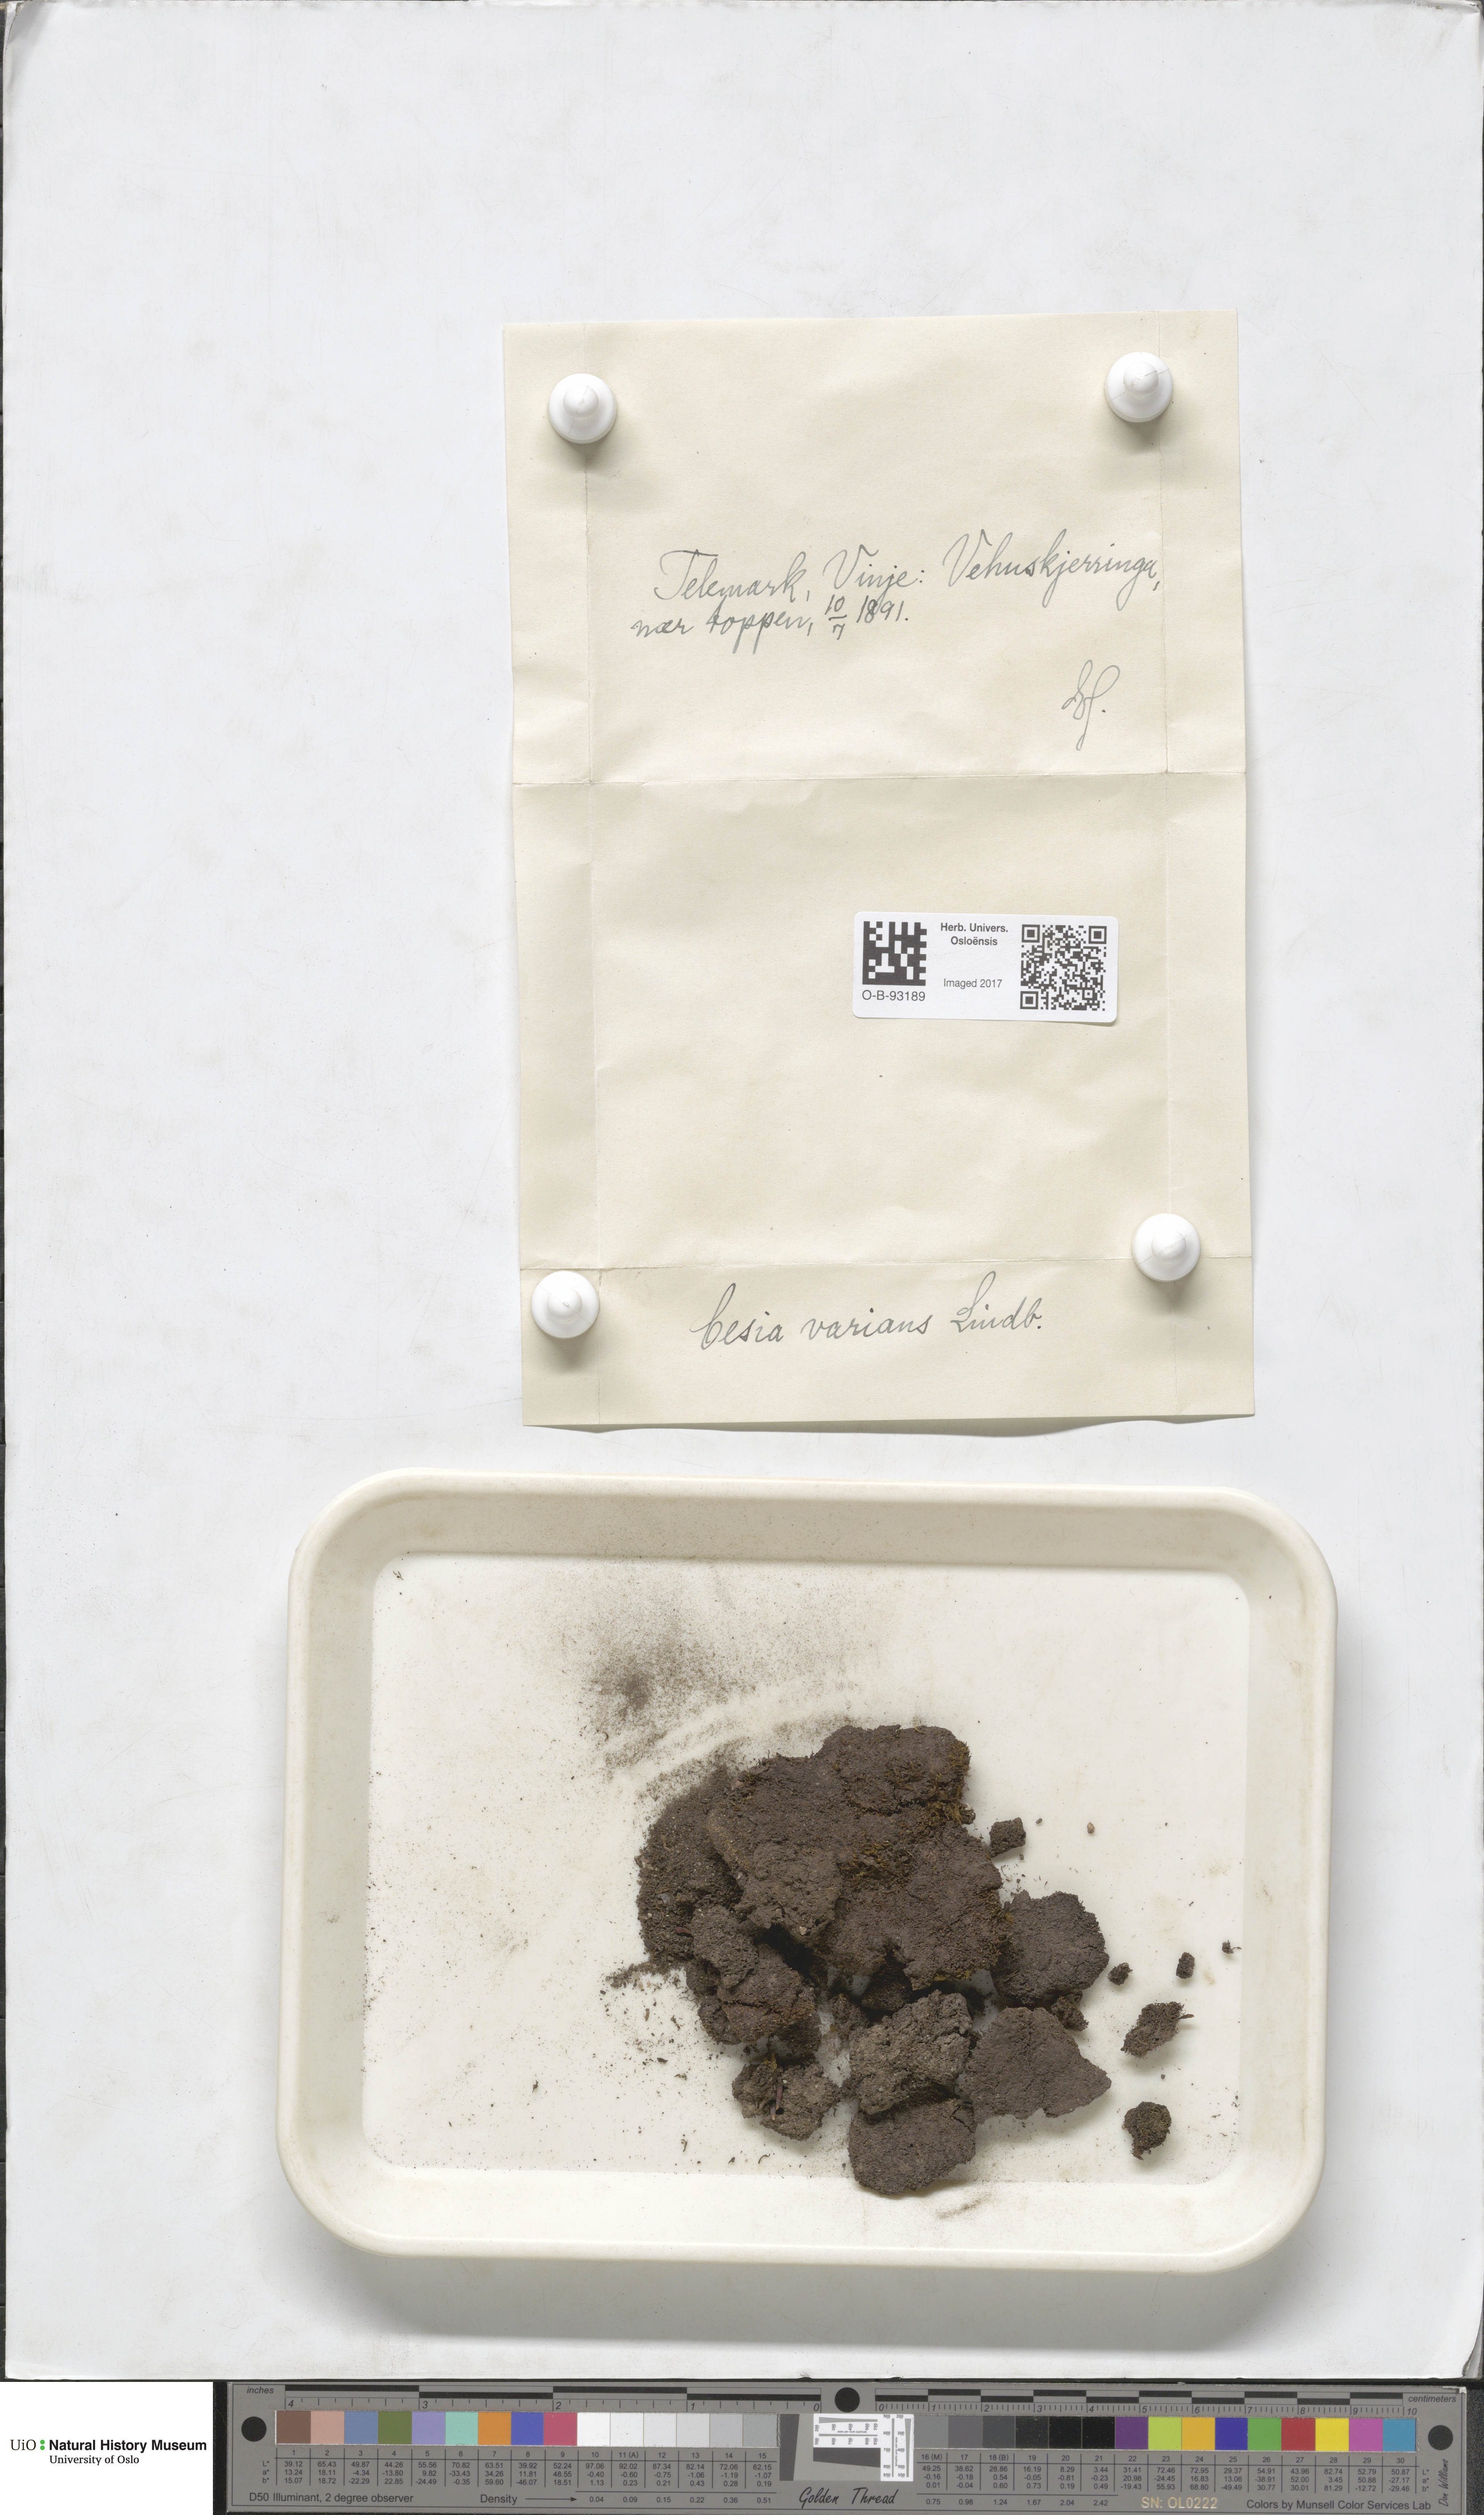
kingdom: Plantae
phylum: Marchantiophyta
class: Jungermanniopsida
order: Jungermanniales
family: Gymnomitriaceae
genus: Gymnomitrion
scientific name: Gymnomitrion brevissimum
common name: Snow rustwort
